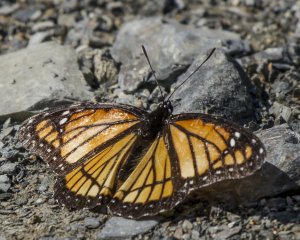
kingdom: Animalia
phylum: Arthropoda
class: Insecta
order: Lepidoptera
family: Nymphalidae
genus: Limenitis
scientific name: Limenitis archippus
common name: Viceroy
